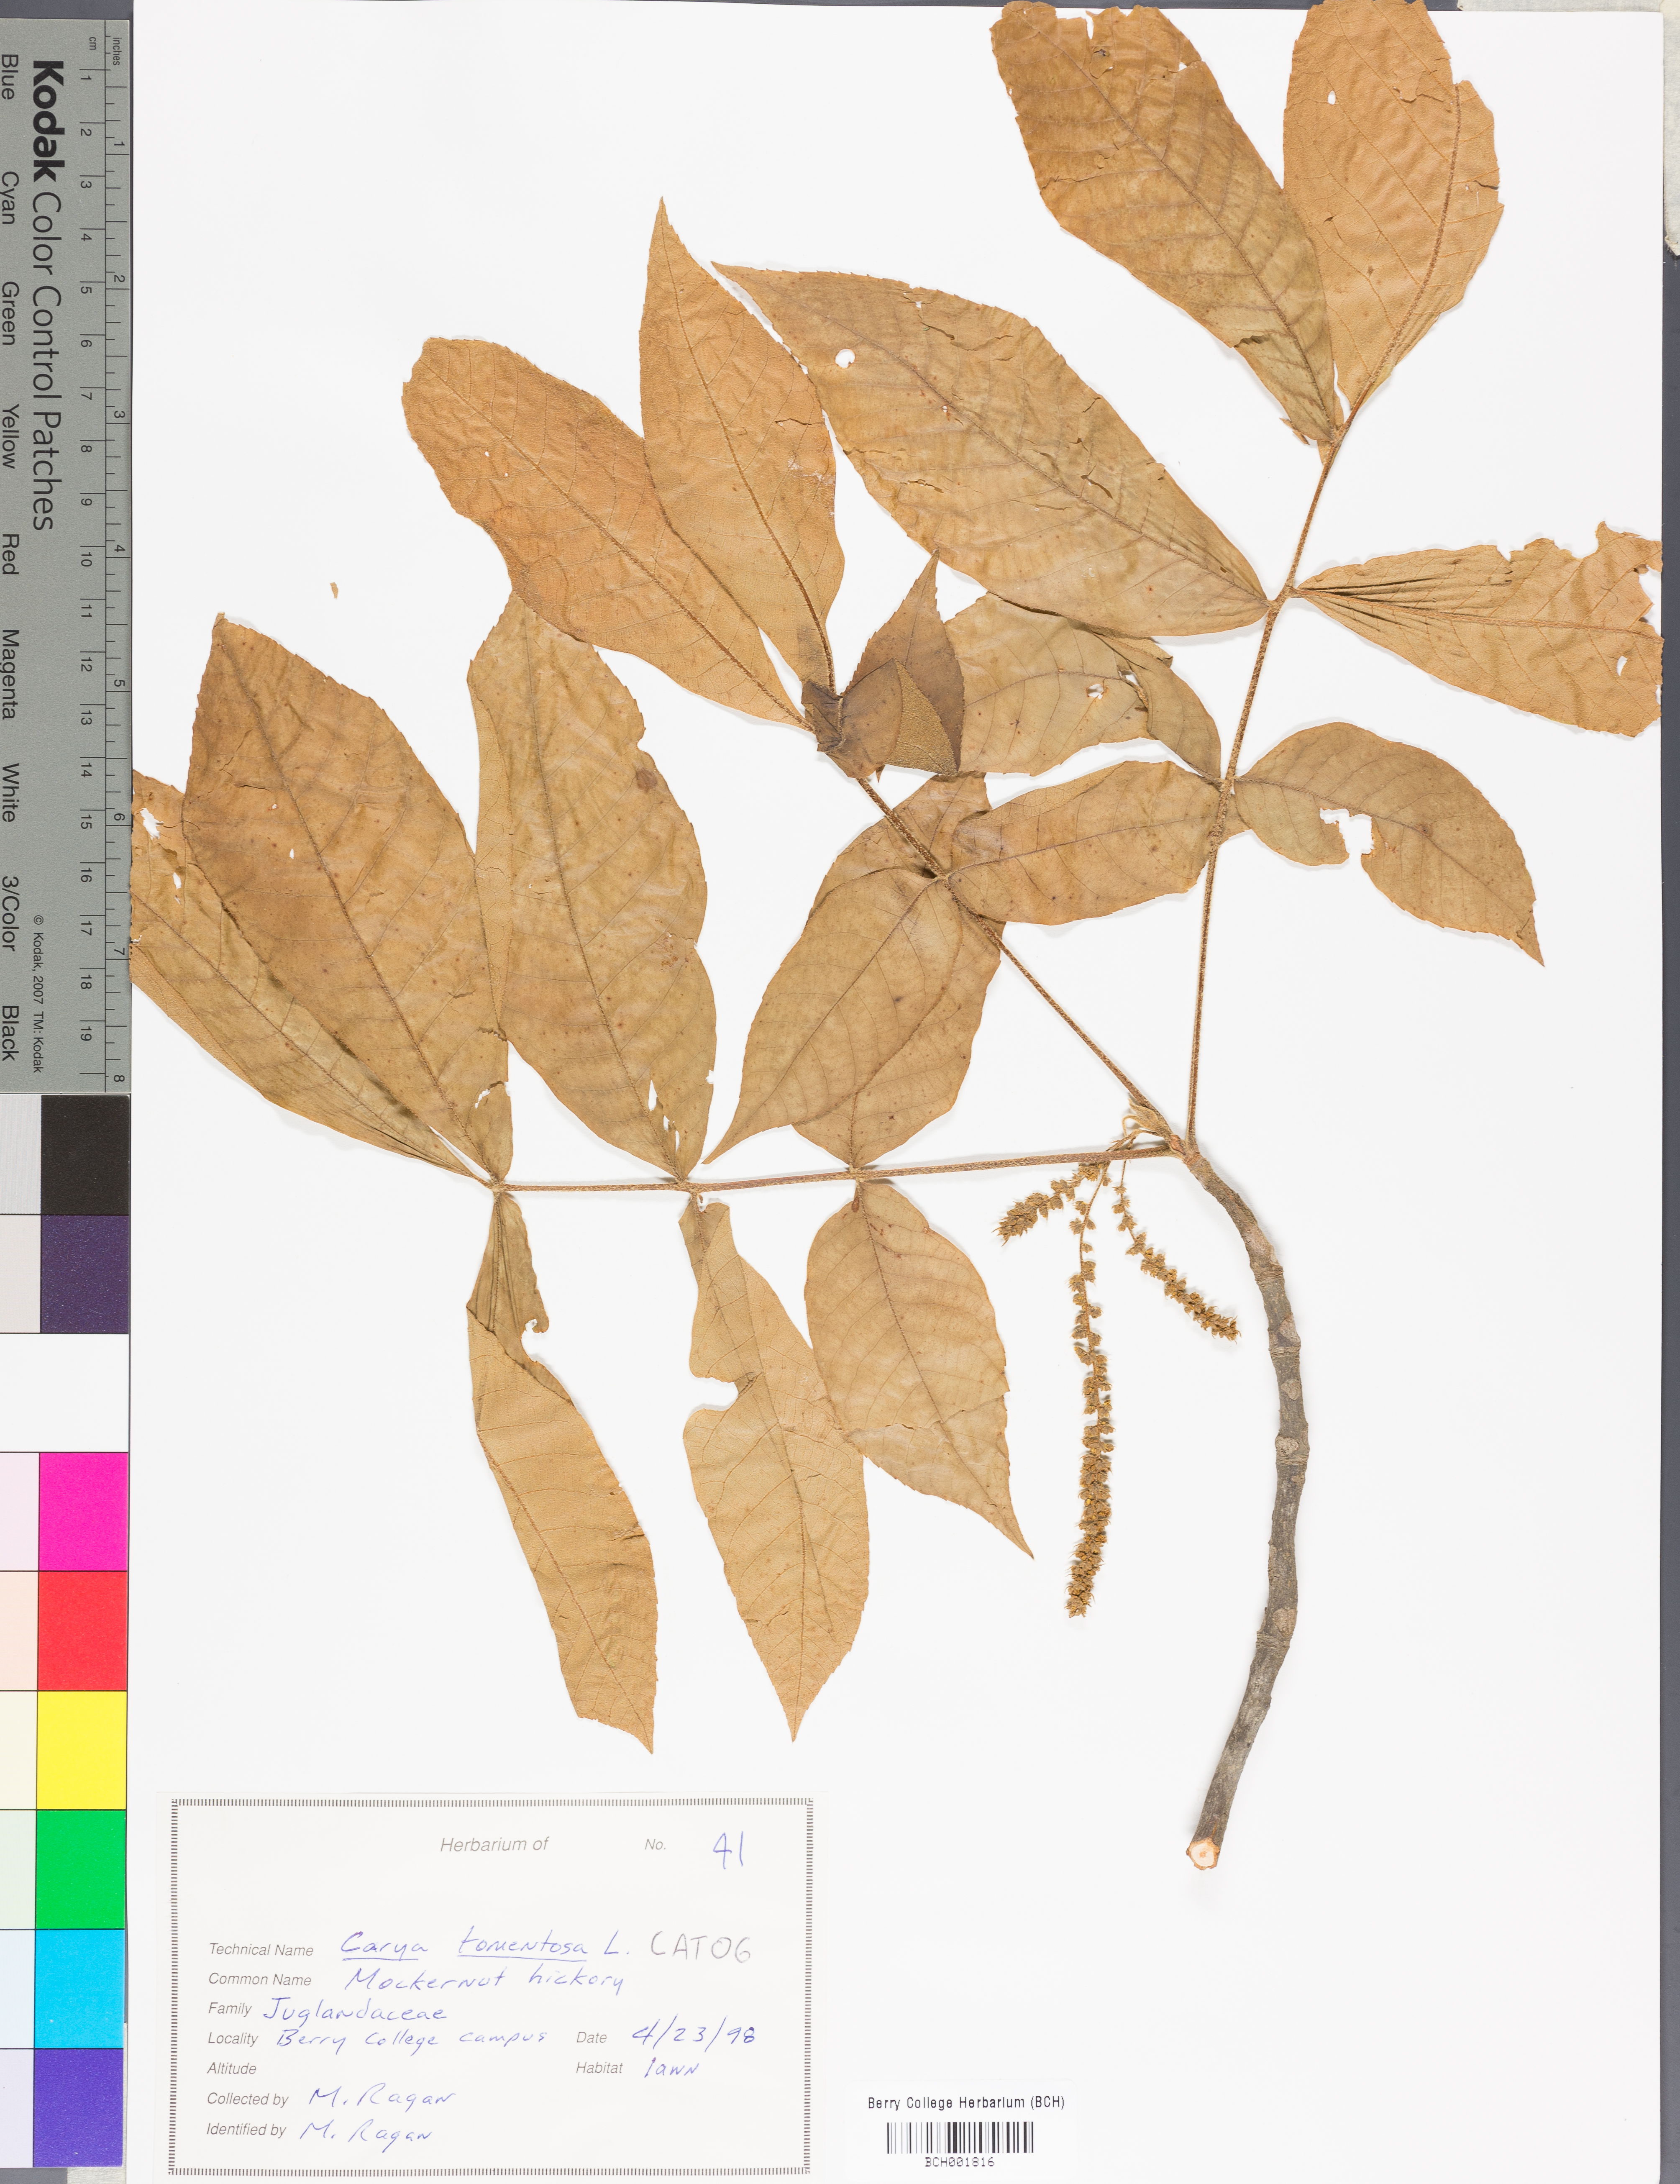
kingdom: Plantae
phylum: Tracheophyta
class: Magnoliopsida
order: Fagales
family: Juglandaceae
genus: Carya
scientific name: Carya alba
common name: Mockernut hickory
